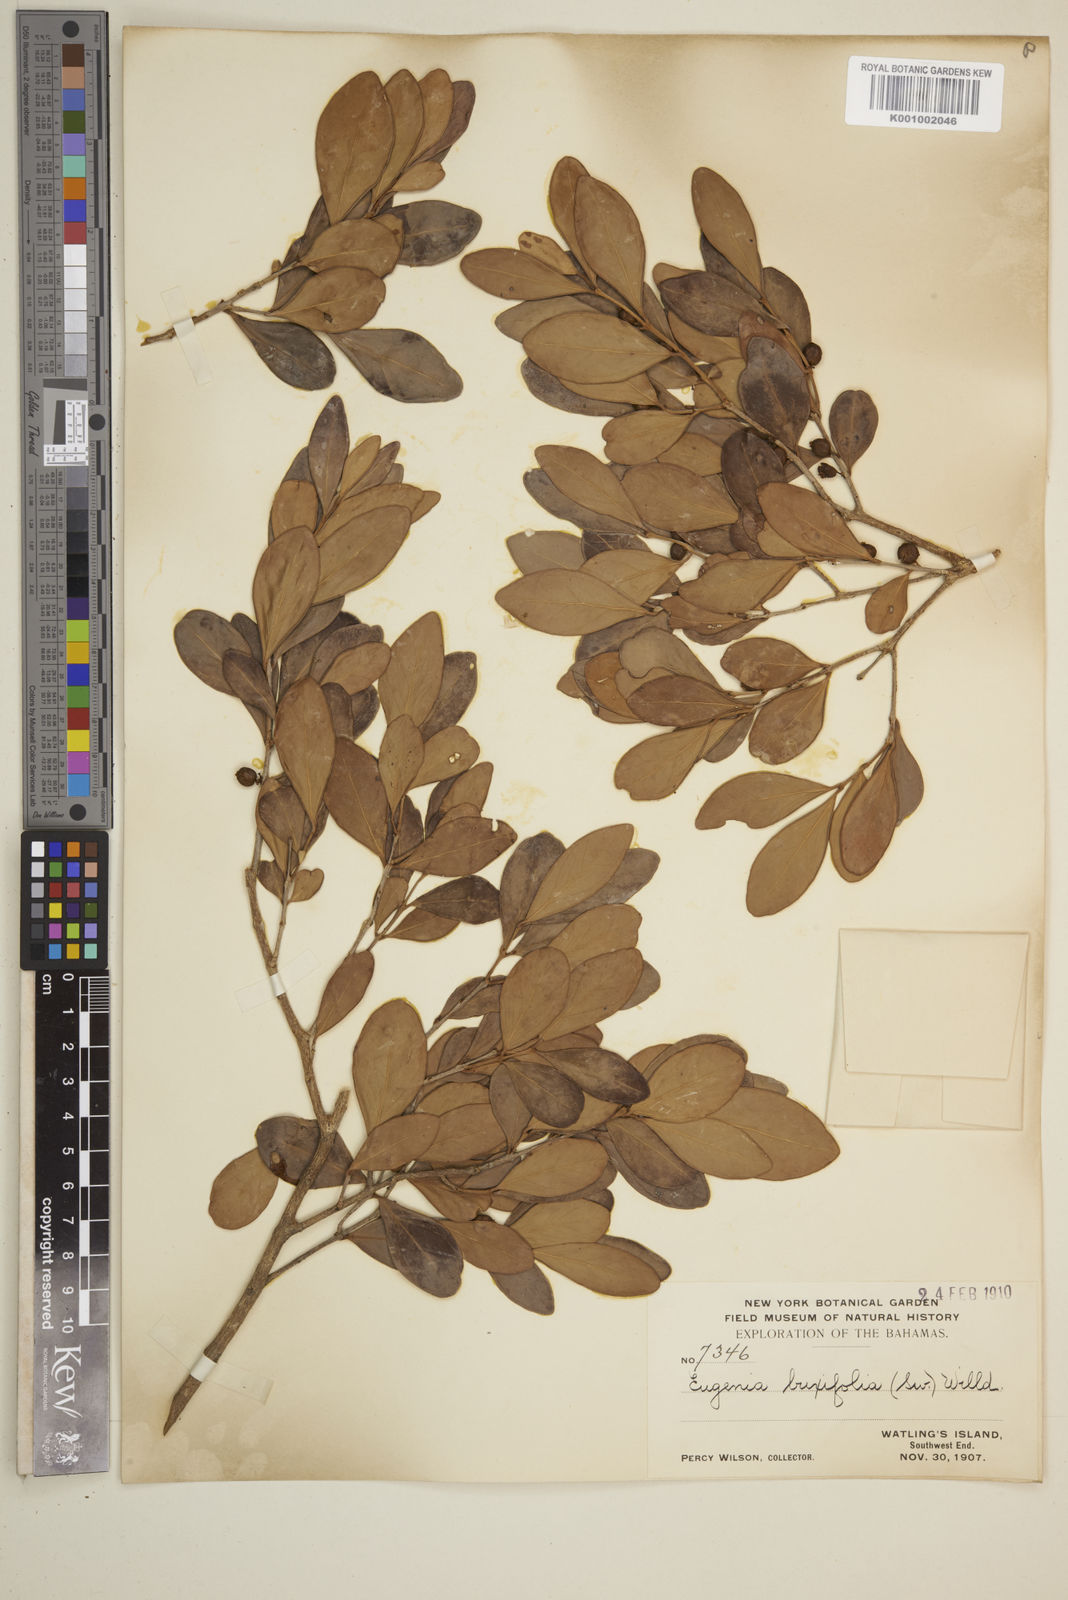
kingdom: Plantae
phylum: Tracheophyta
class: Magnoliopsida
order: Myrtales
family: Myrtaceae
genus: Eugenia
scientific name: Eugenia buxifolia
